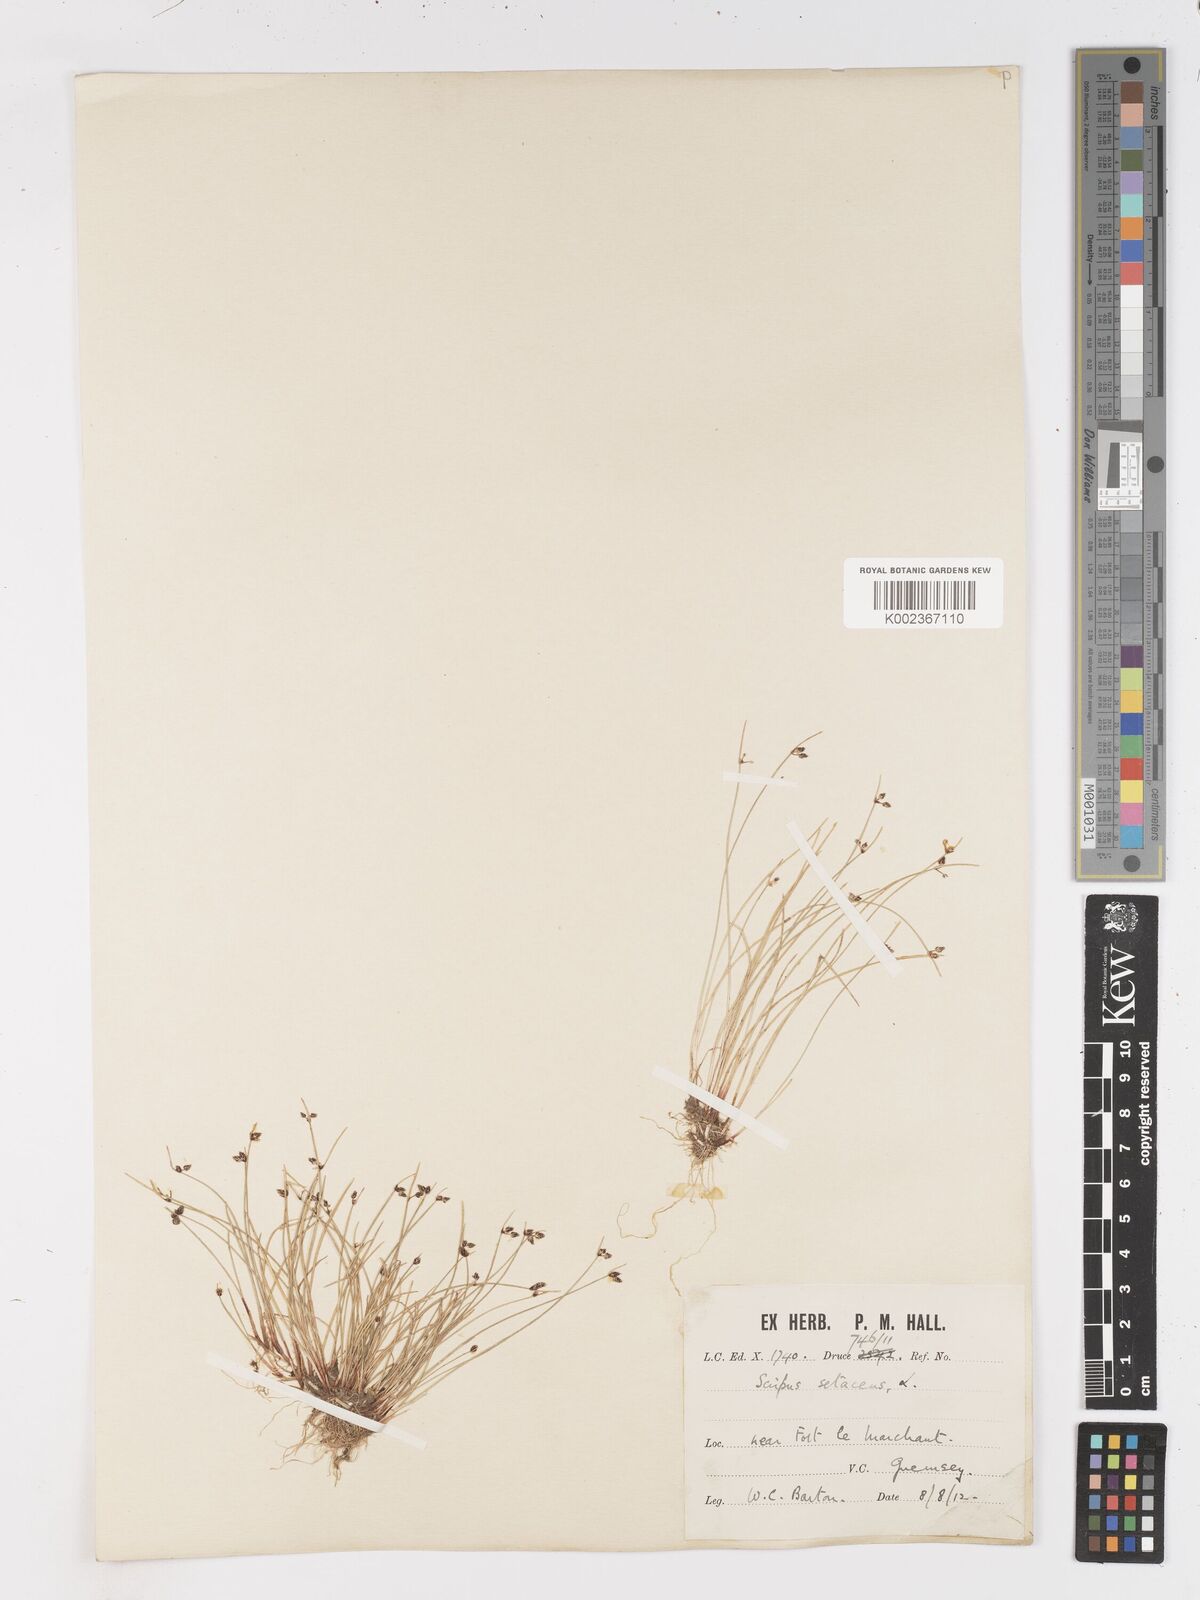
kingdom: Plantae
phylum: Tracheophyta
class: Liliopsida
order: Poales
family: Cyperaceae
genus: Isolepis
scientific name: Isolepis setacea
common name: Bristle club-rush
